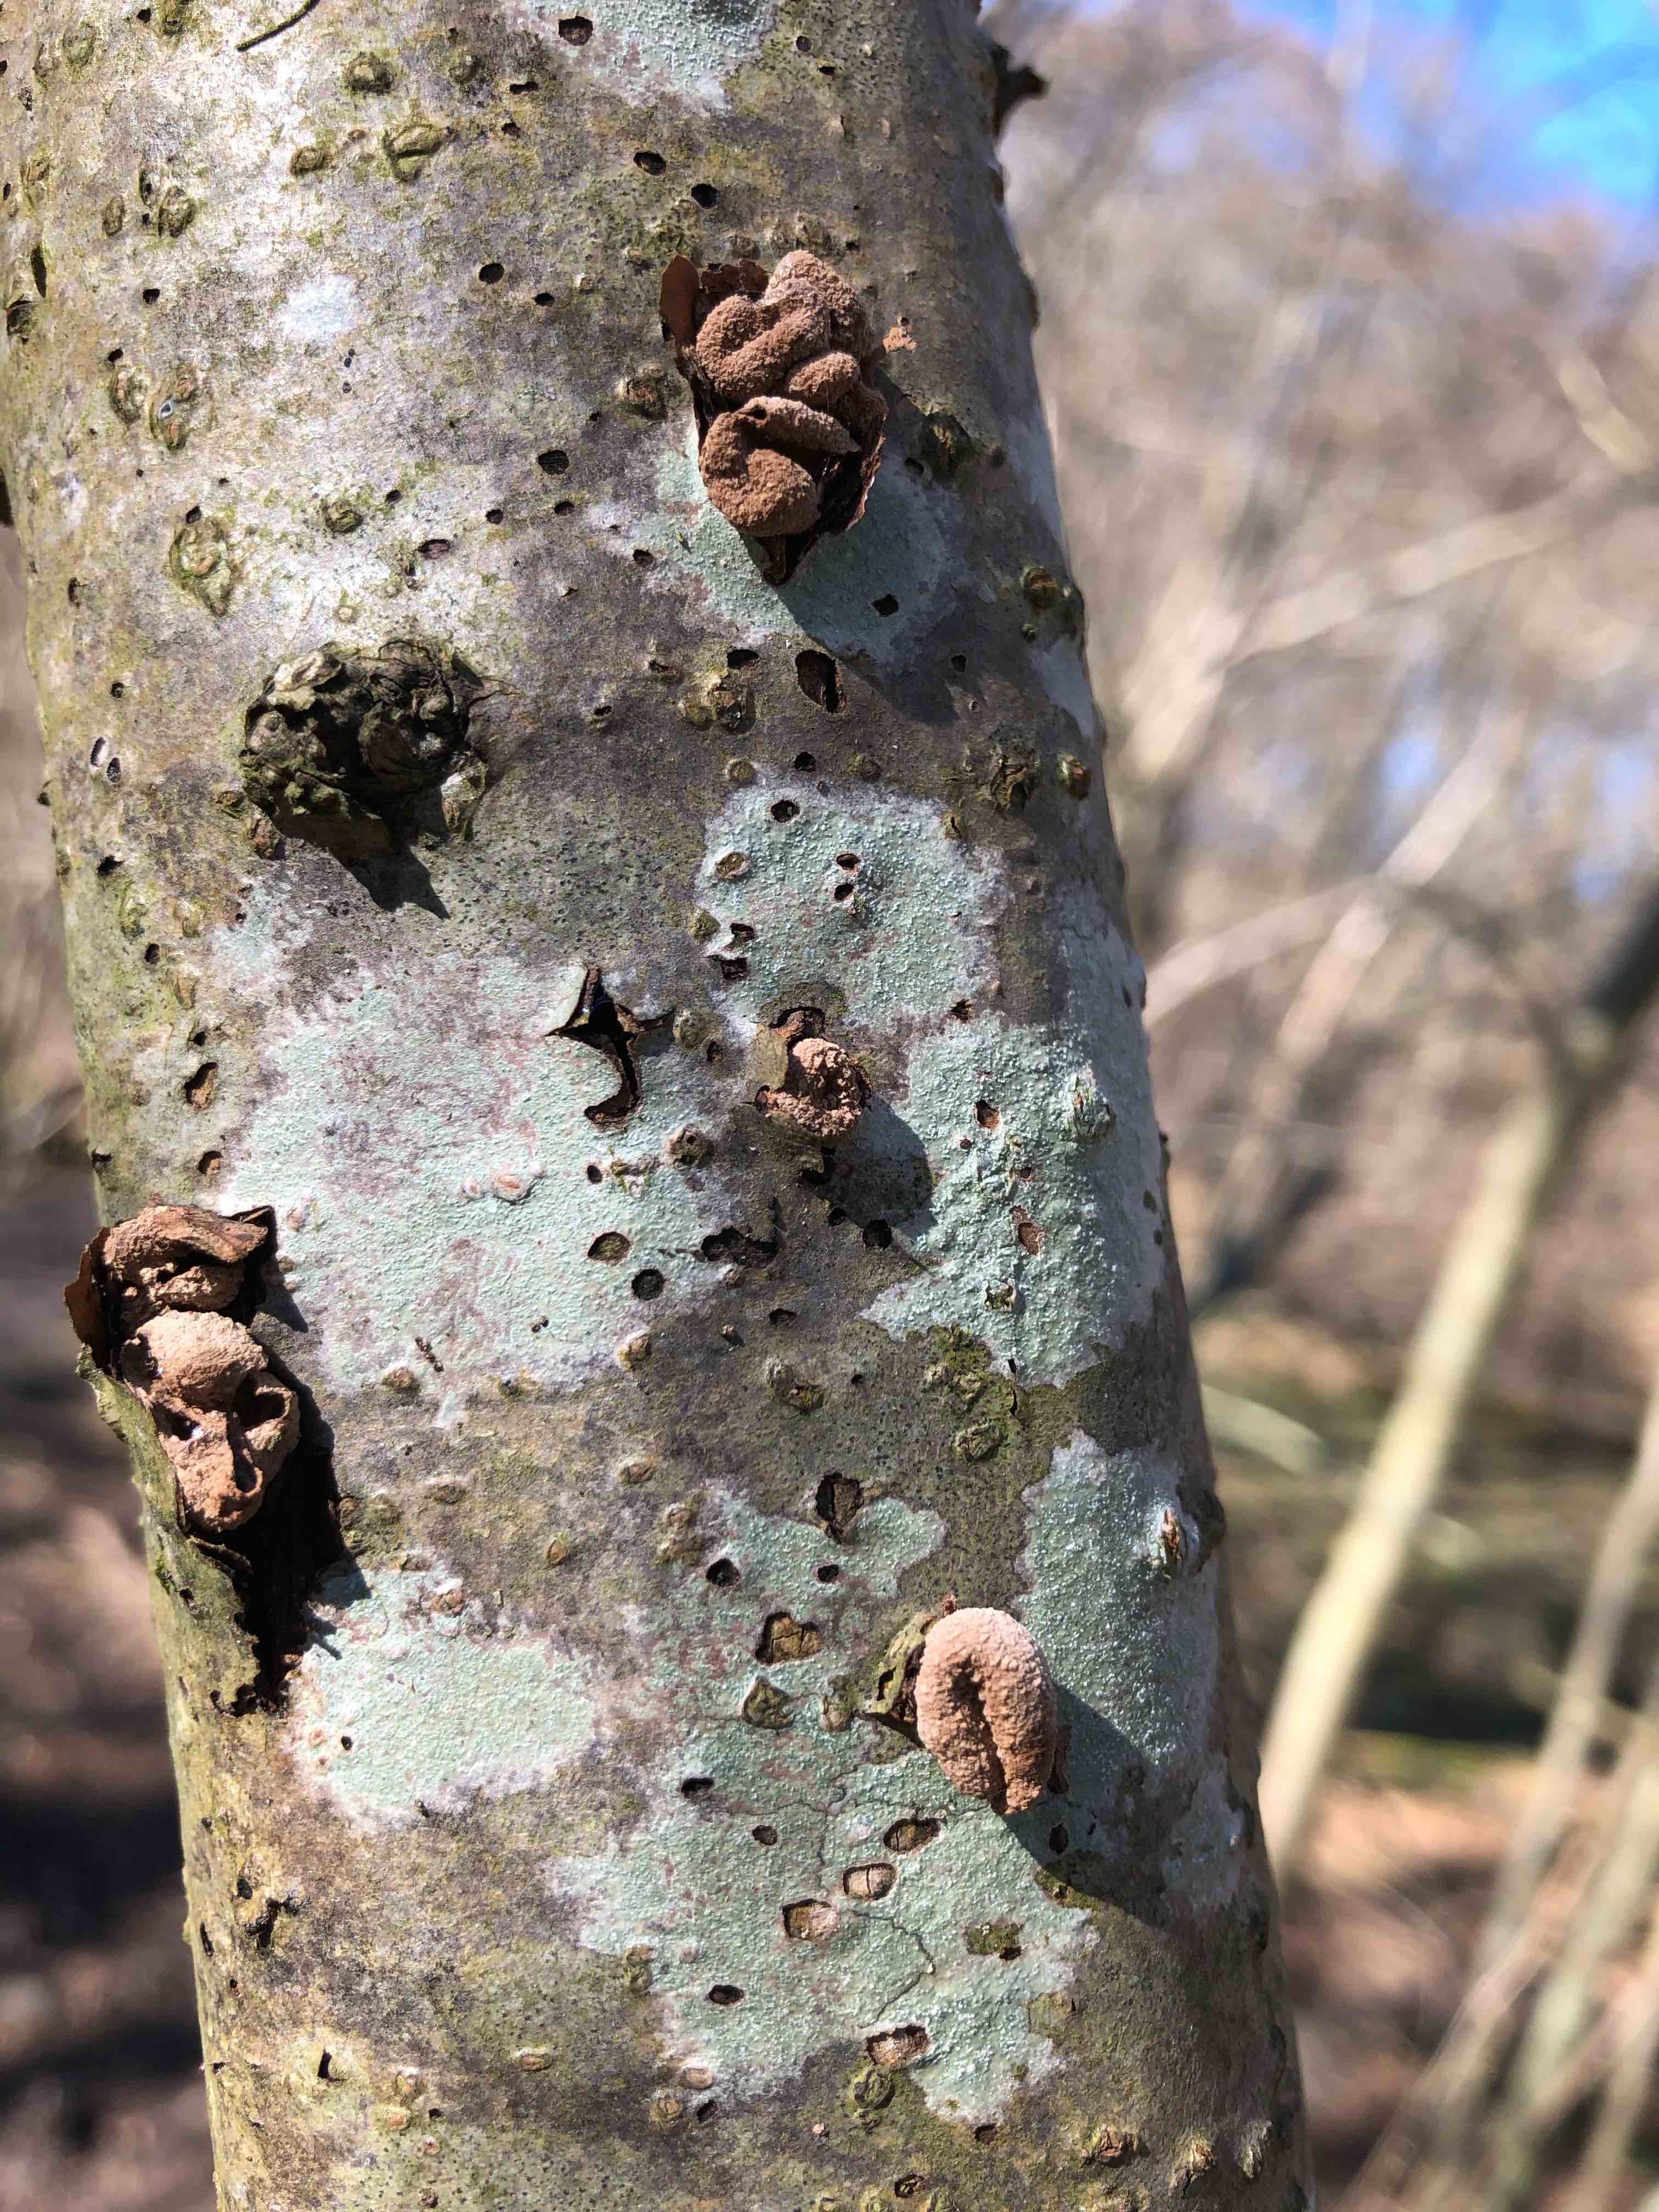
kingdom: Fungi
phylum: Ascomycota
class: Leotiomycetes
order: Helotiales
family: Cenangiaceae
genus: Encoelia
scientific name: Encoelia furfuracea
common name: hassel-læderskive
